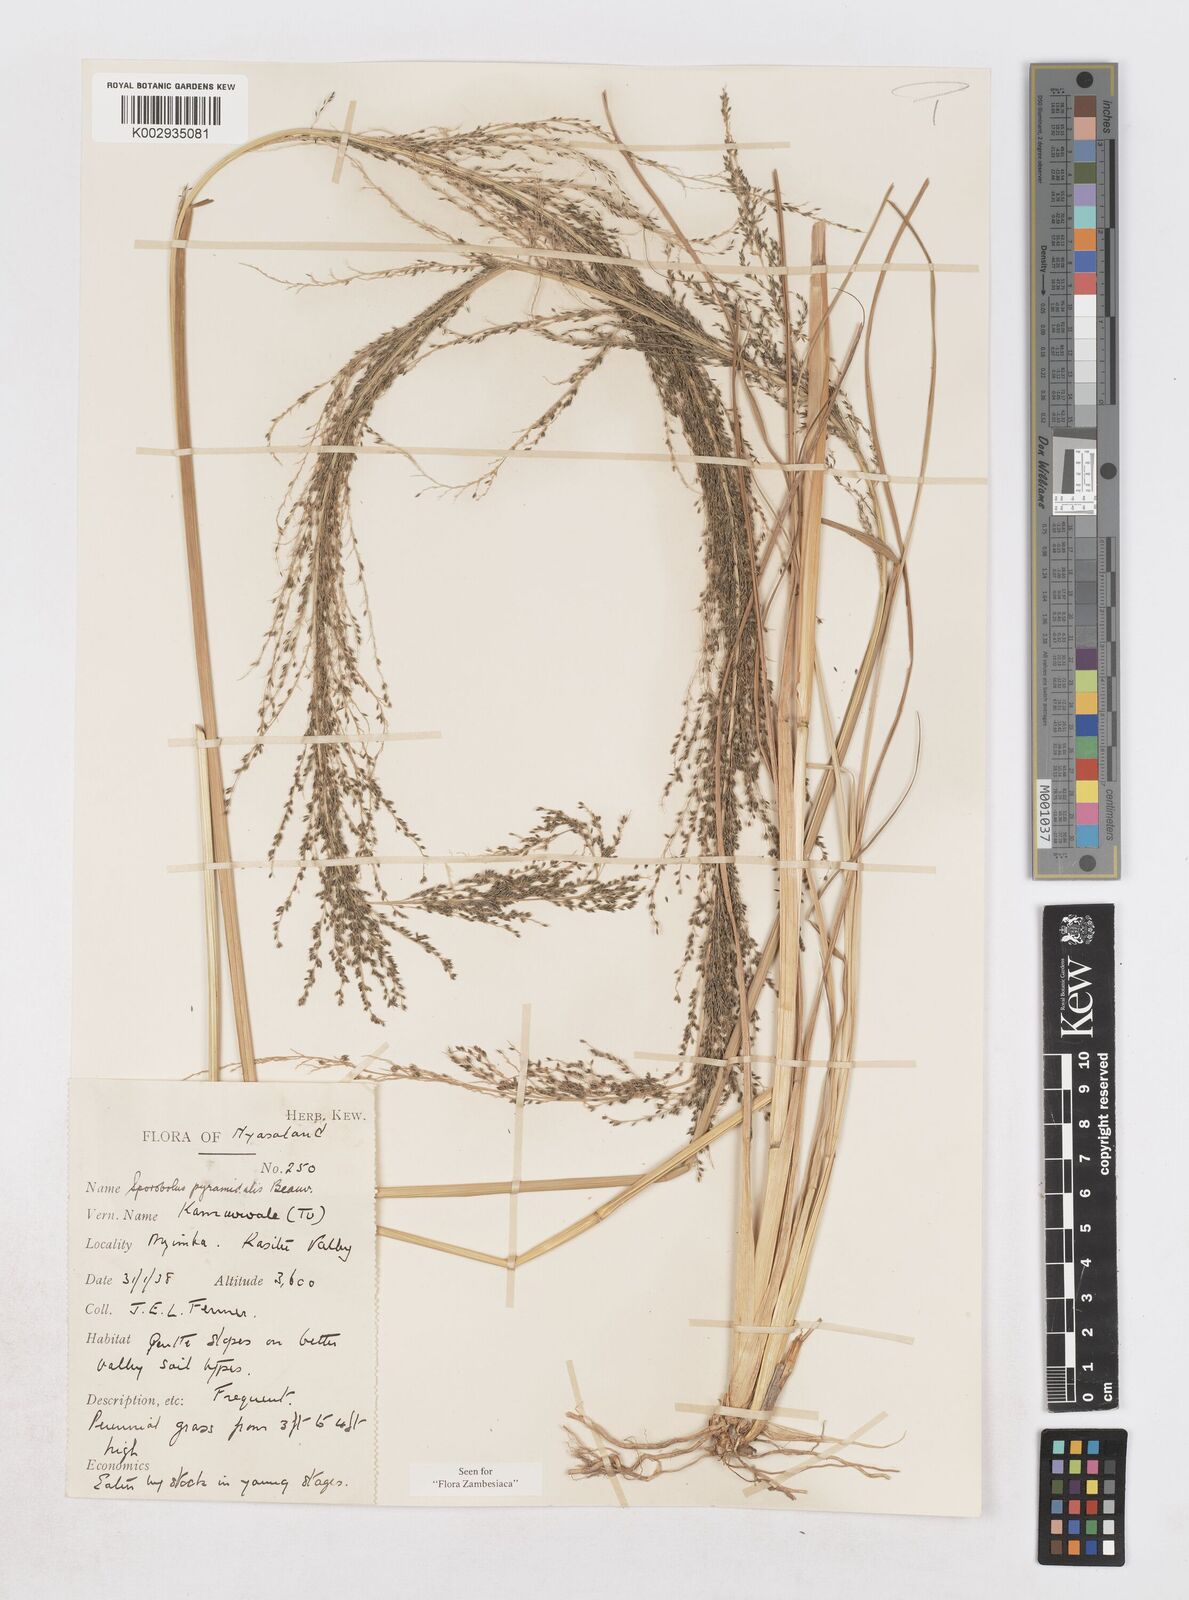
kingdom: Plantae
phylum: Tracheophyta
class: Liliopsida
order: Poales
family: Poaceae
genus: Sporobolus
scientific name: Sporobolus pyramidalis
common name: West indian dropseed
